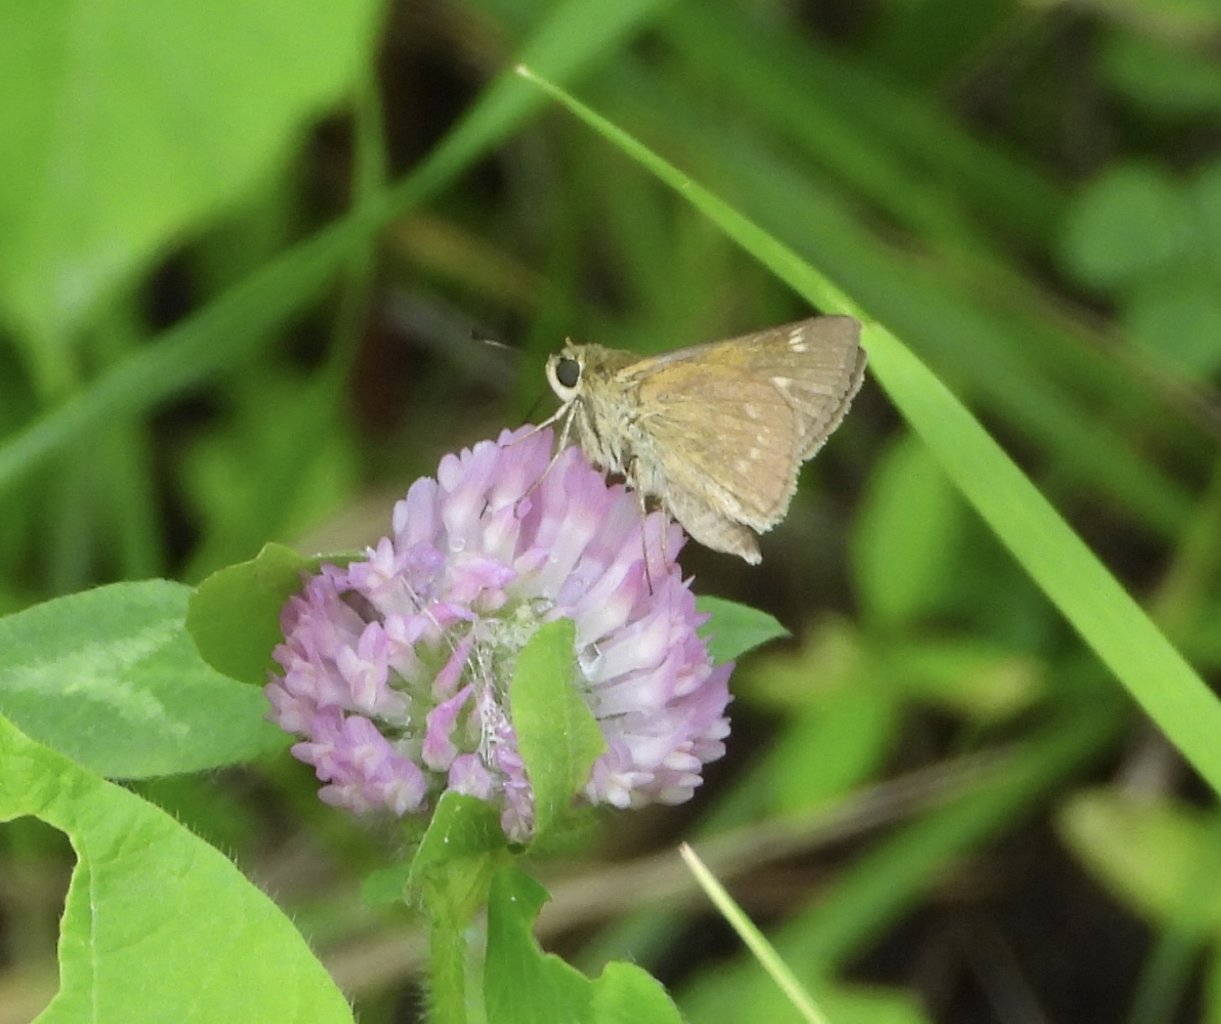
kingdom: Animalia
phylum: Arthropoda
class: Insecta
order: Lepidoptera
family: Hesperiidae
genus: Polites
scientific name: Polites
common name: Crossline Skipper
